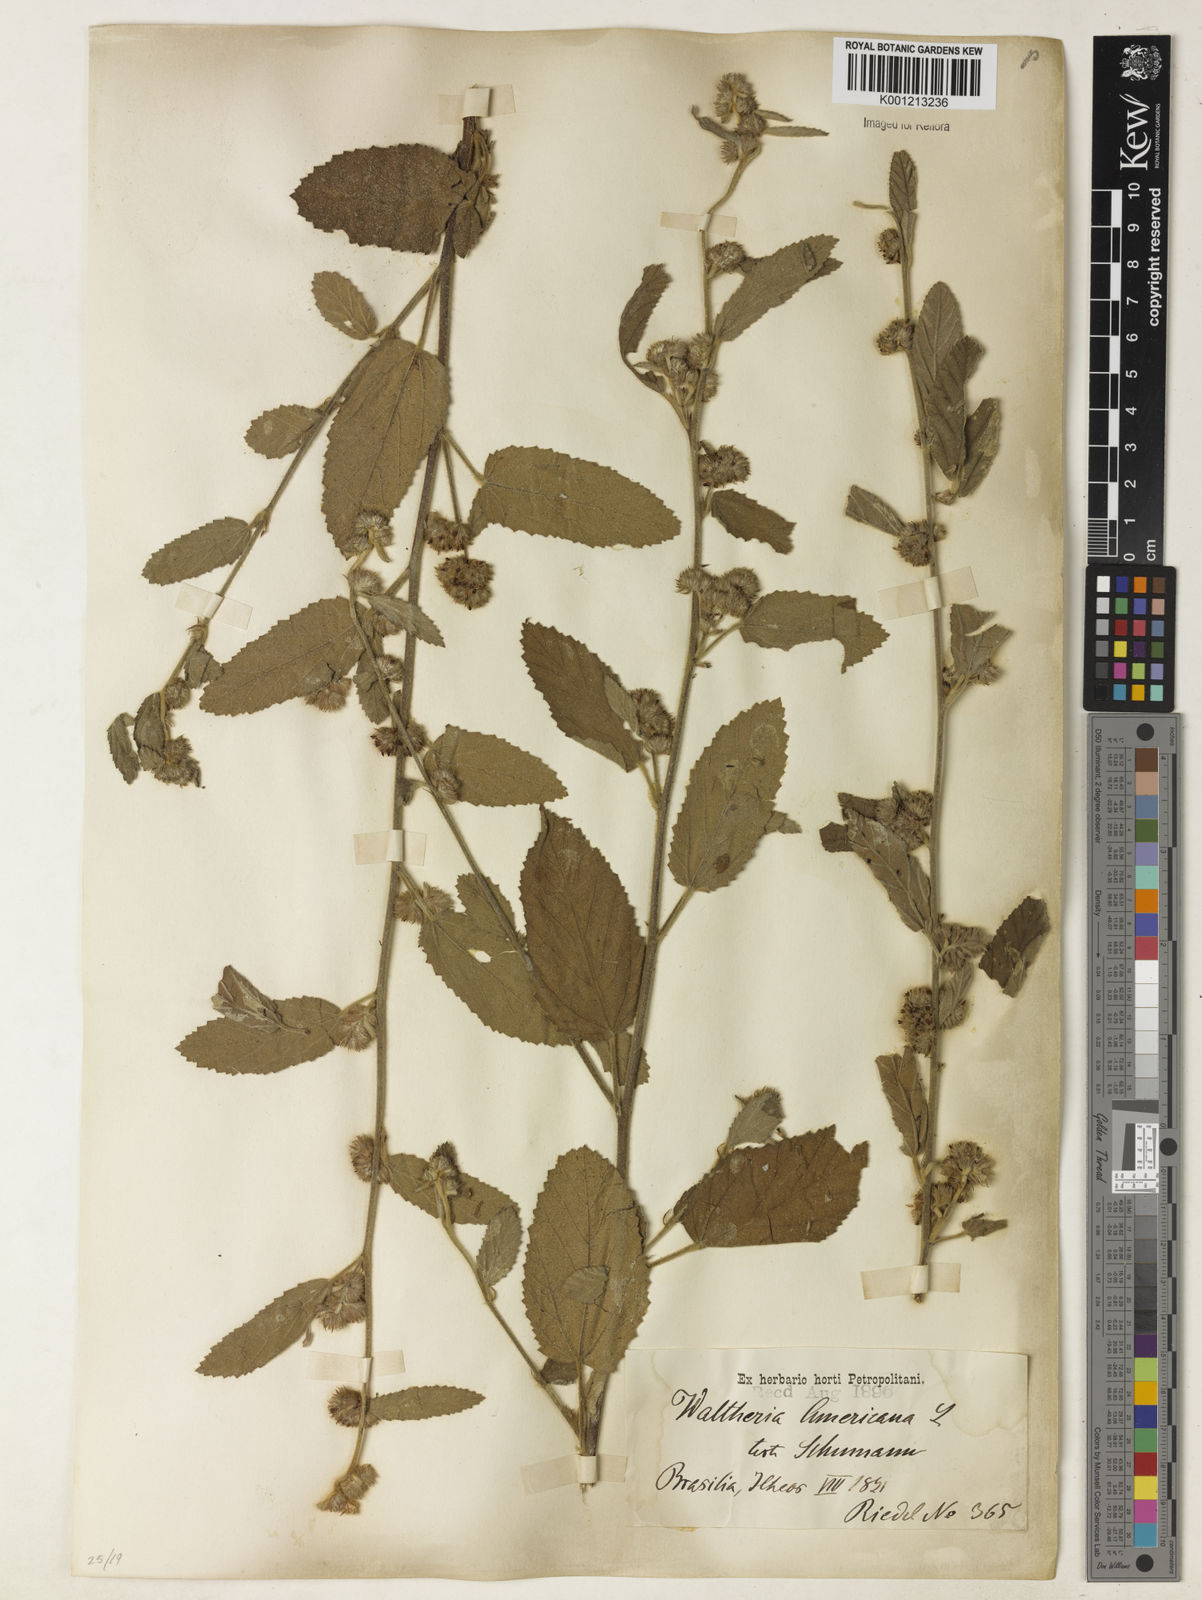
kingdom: Plantae
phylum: Tracheophyta
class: Magnoliopsida
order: Malvales
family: Malvaceae
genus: Waltheria
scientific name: Waltheria indica
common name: Leather-coat
